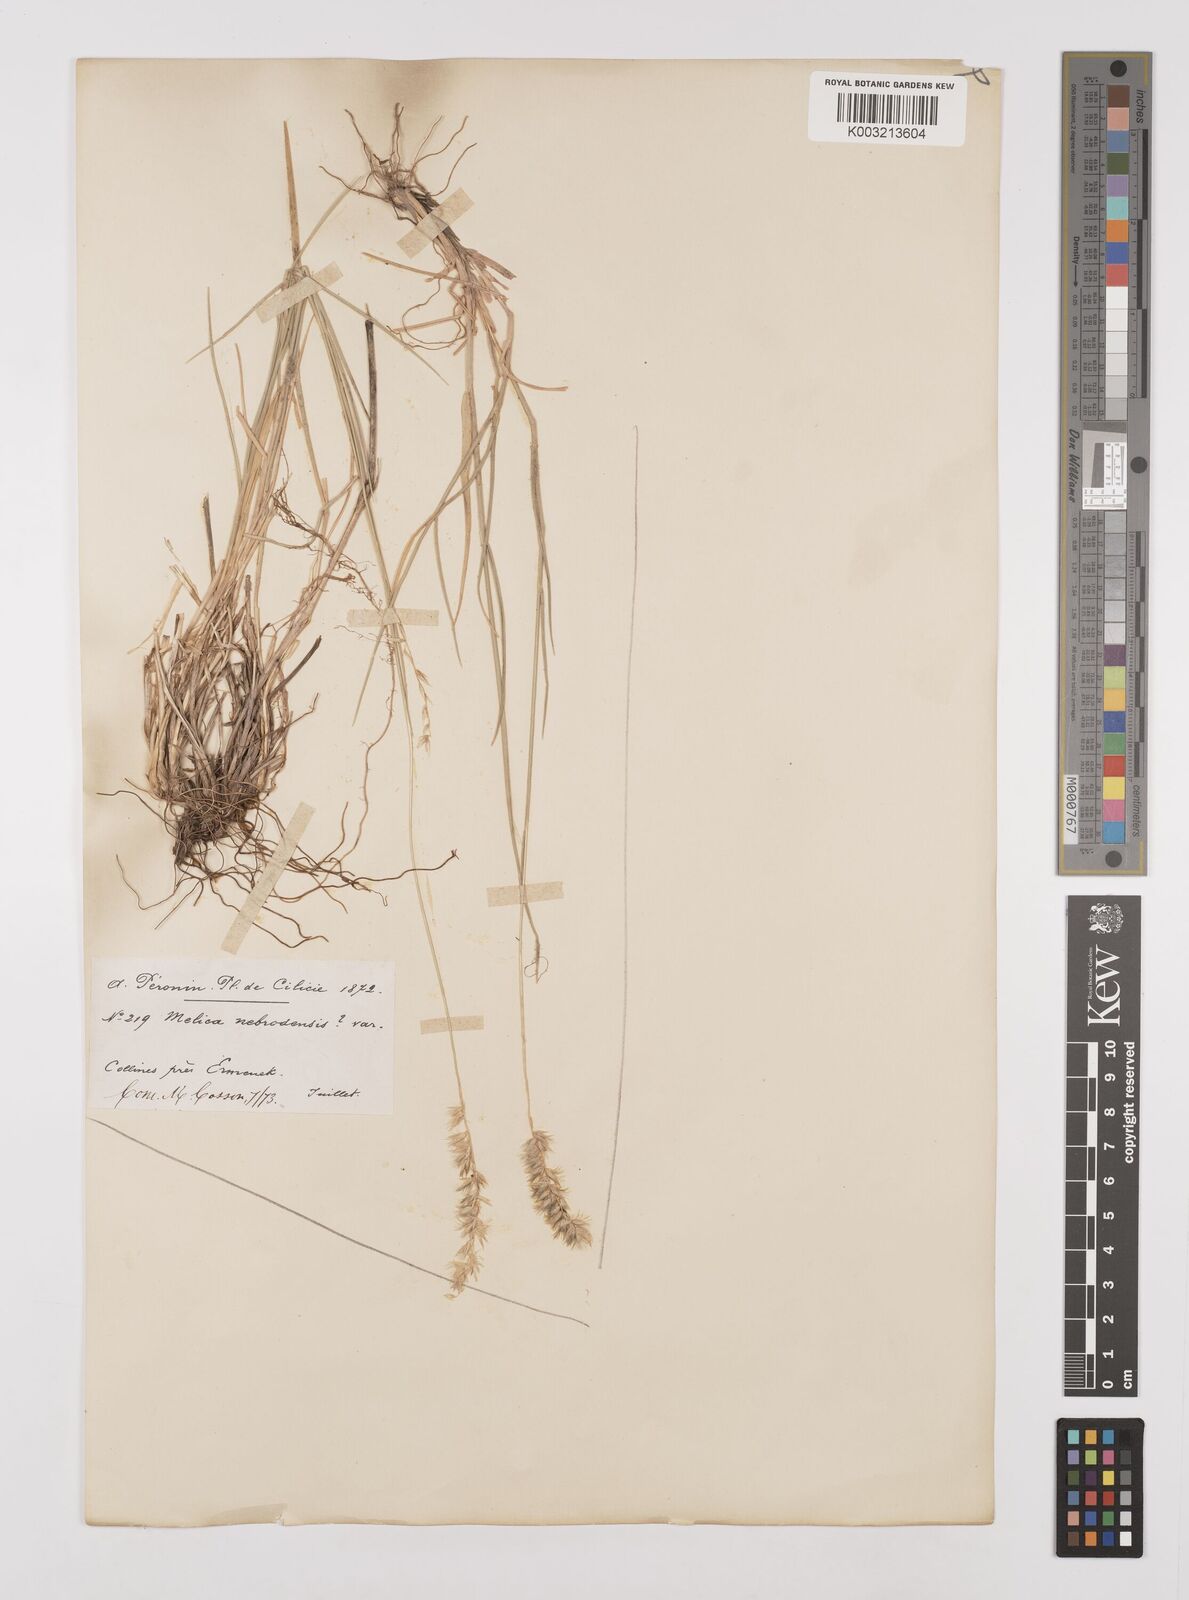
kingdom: Plantae
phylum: Tracheophyta
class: Liliopsida
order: Poales
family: Poaceae
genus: Melica
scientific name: Melica ciliata
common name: Hairy melicgrass
